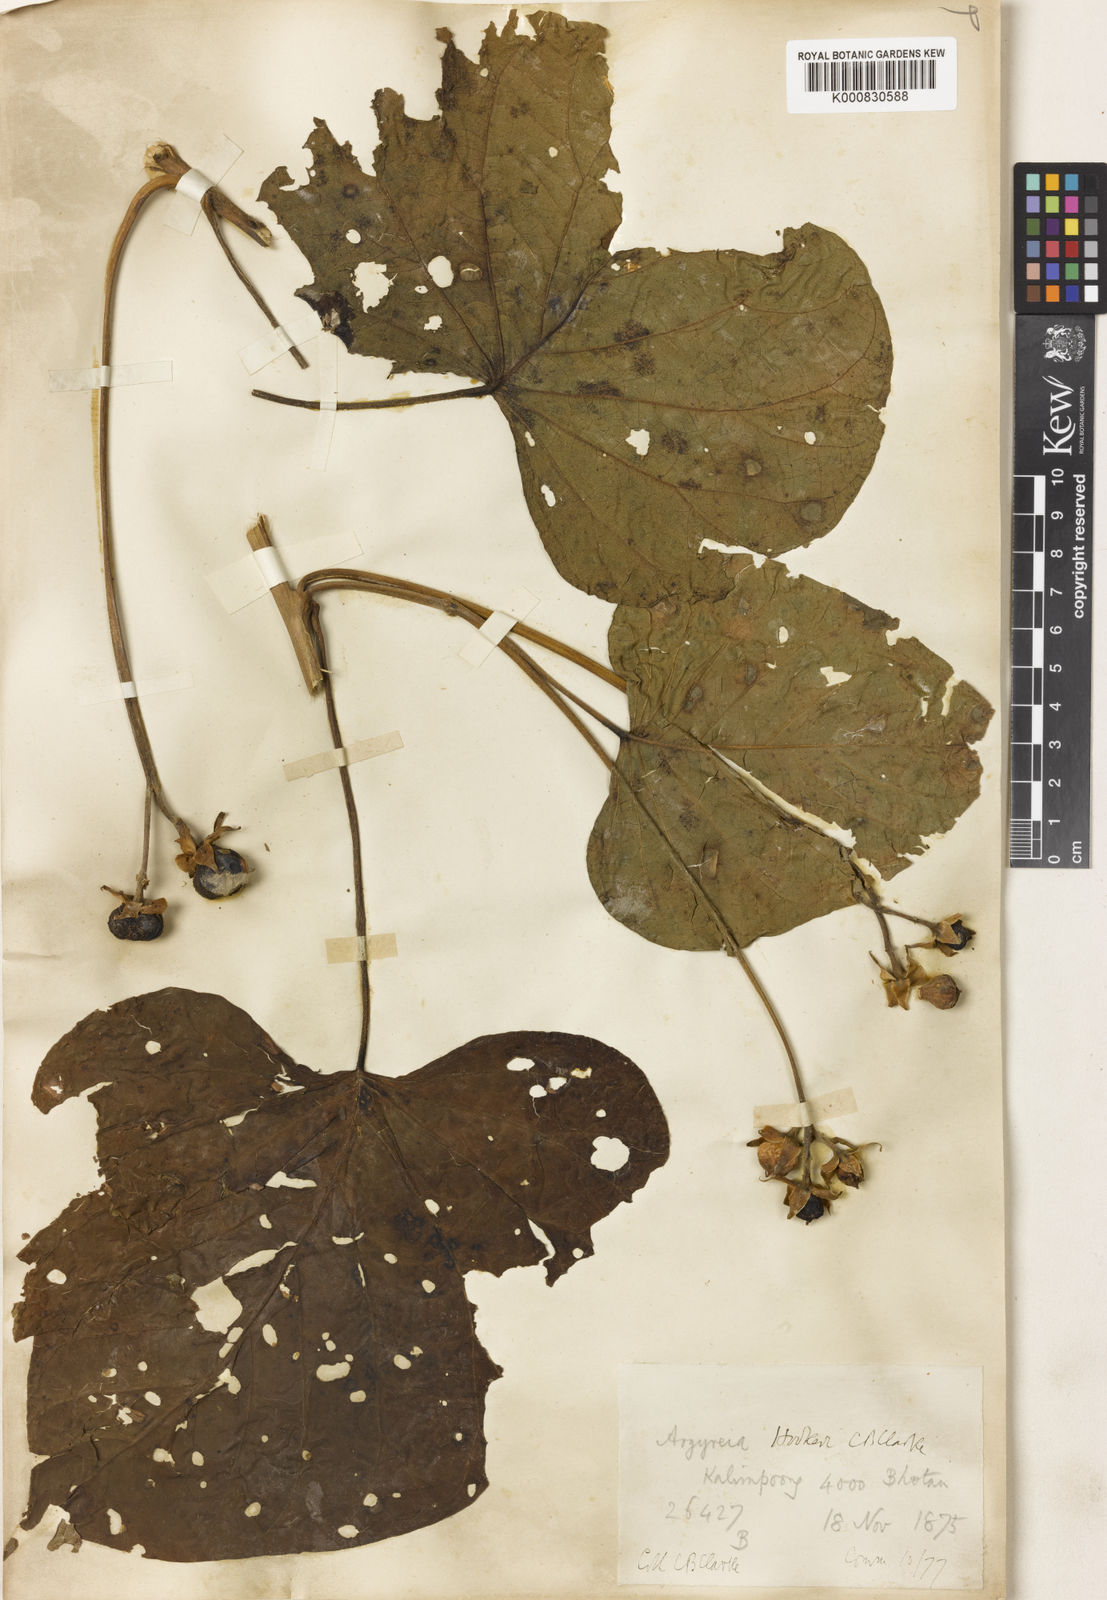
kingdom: Plantae
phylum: Tracheophyta
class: Magnoliopsida
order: Solanales
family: Convolvulaceae
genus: Argyreia
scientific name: Argyreia hookeri
